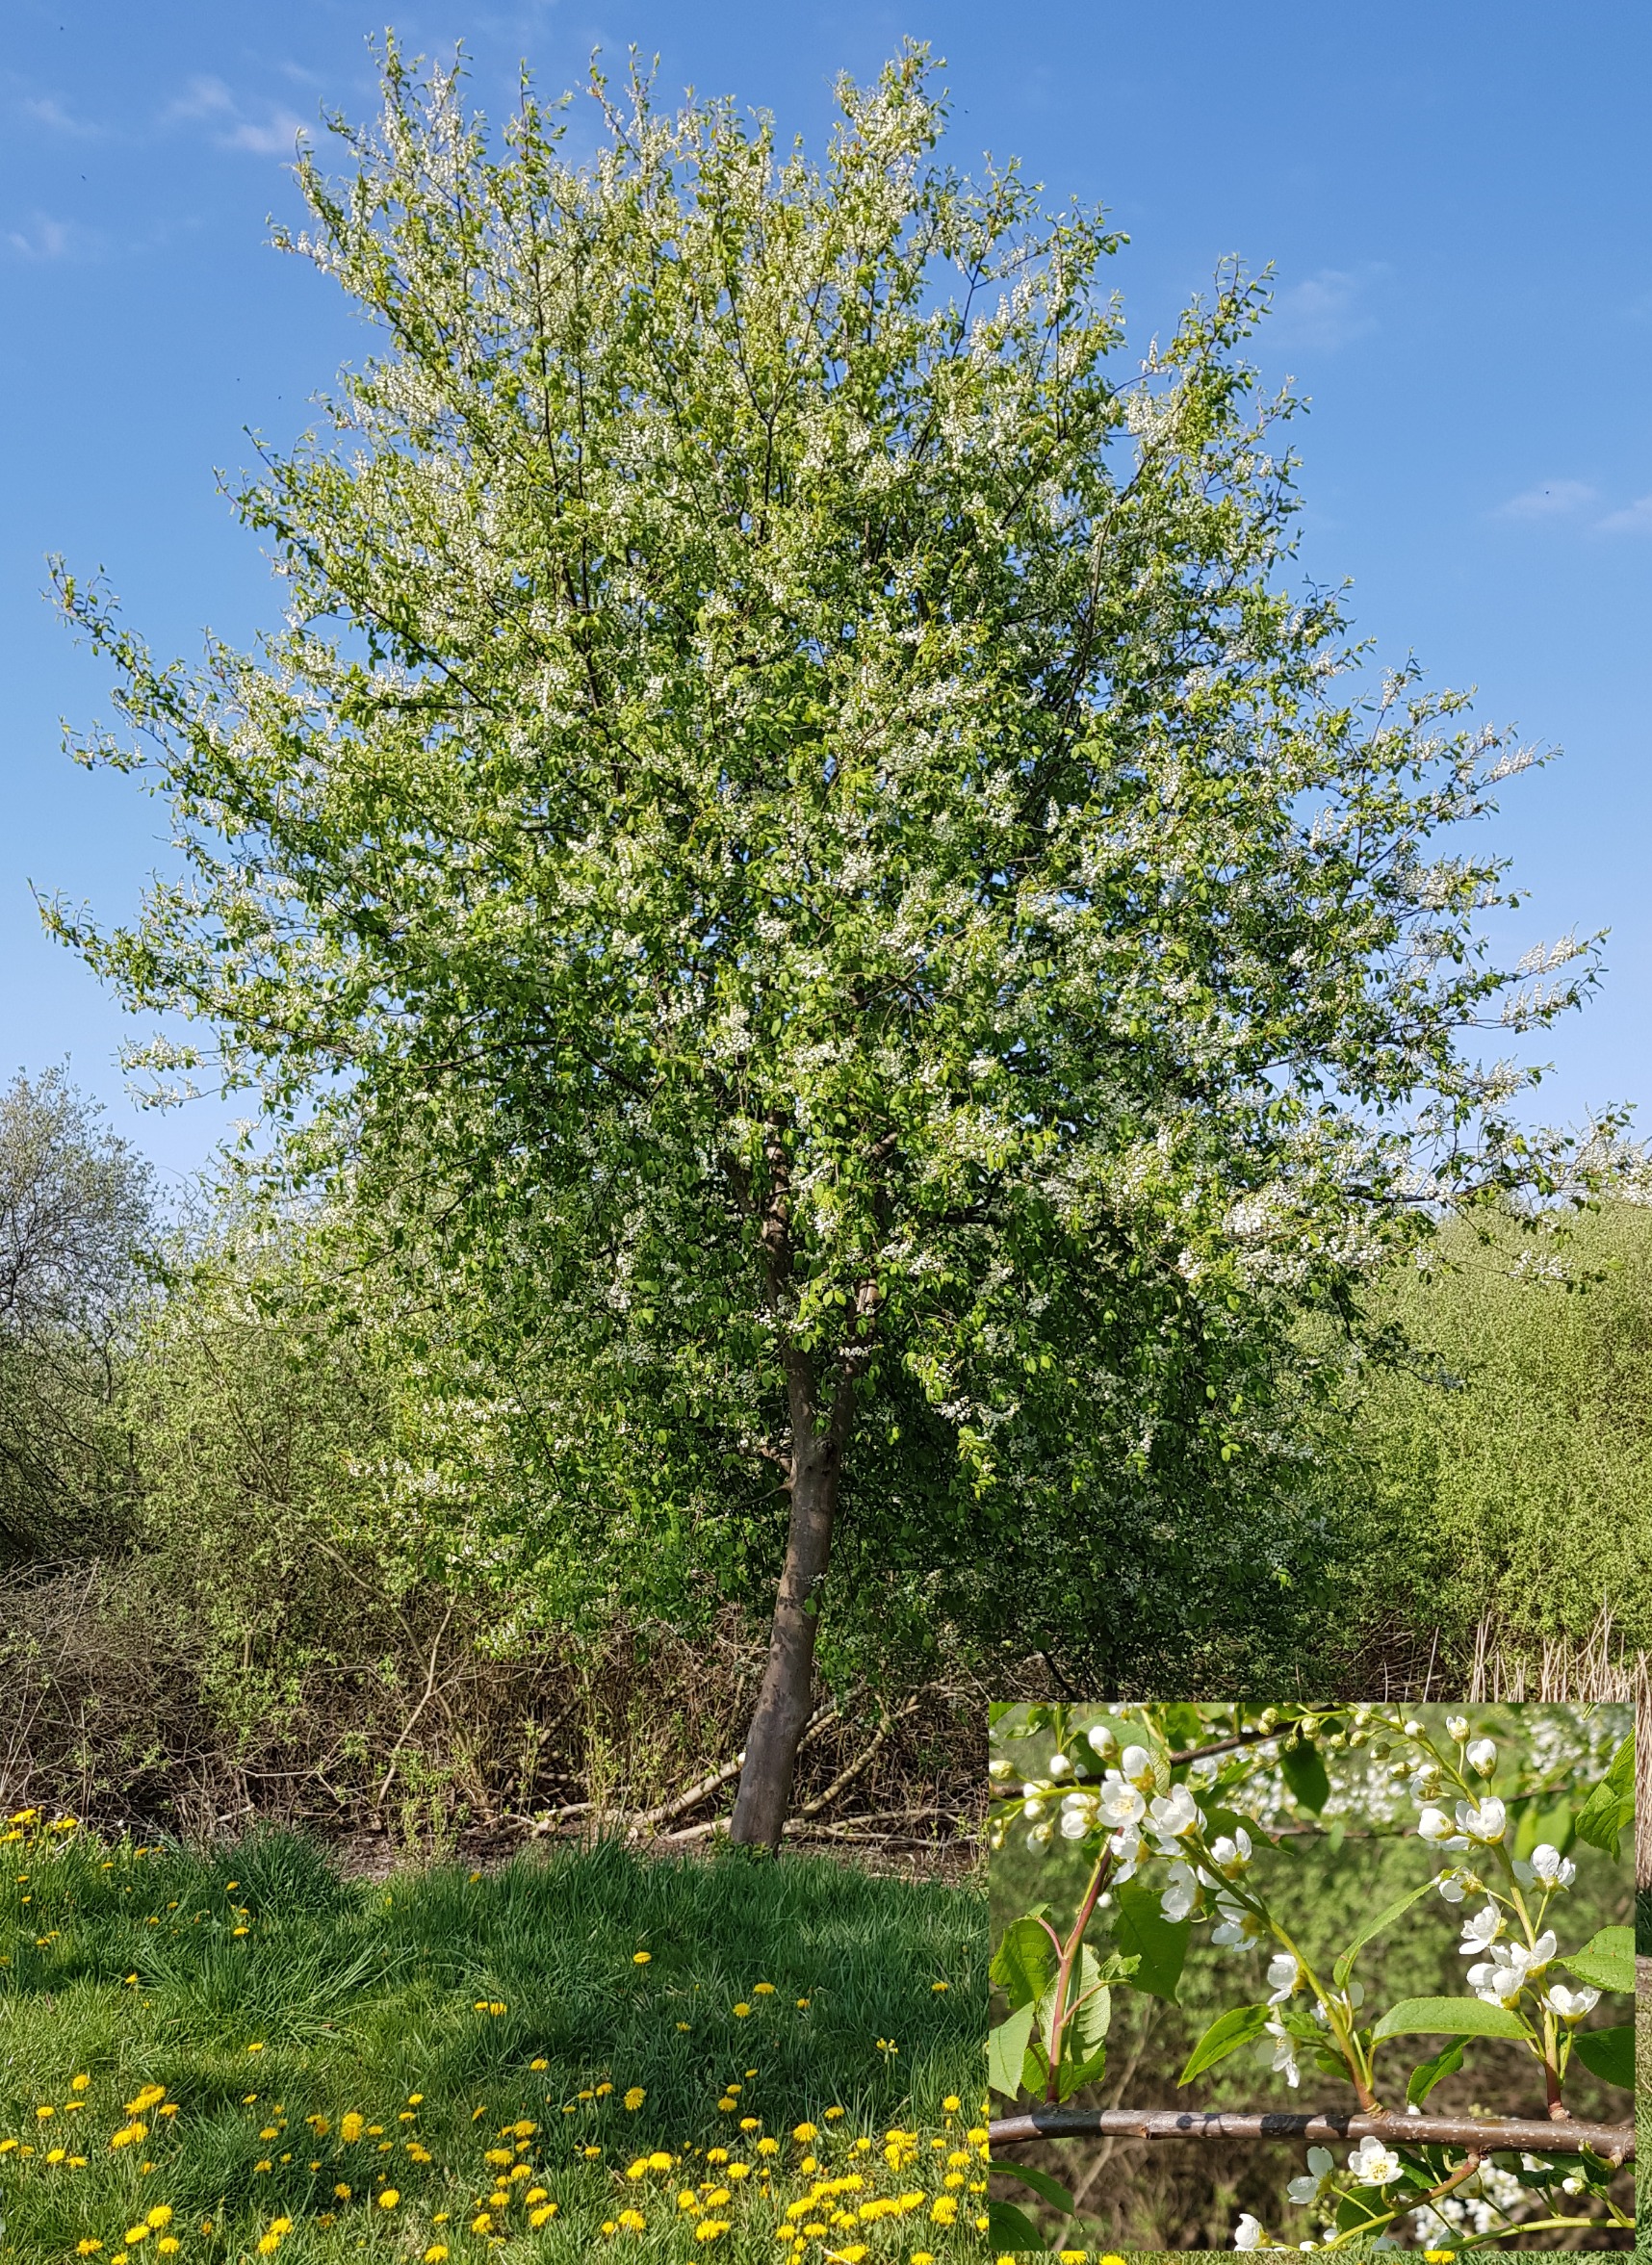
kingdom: Plantae
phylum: Tracheophyta
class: Magnoliopsida
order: Rosales
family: Rosaceae
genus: Prunus
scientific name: Prunus padus
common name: Almindelig hæg
